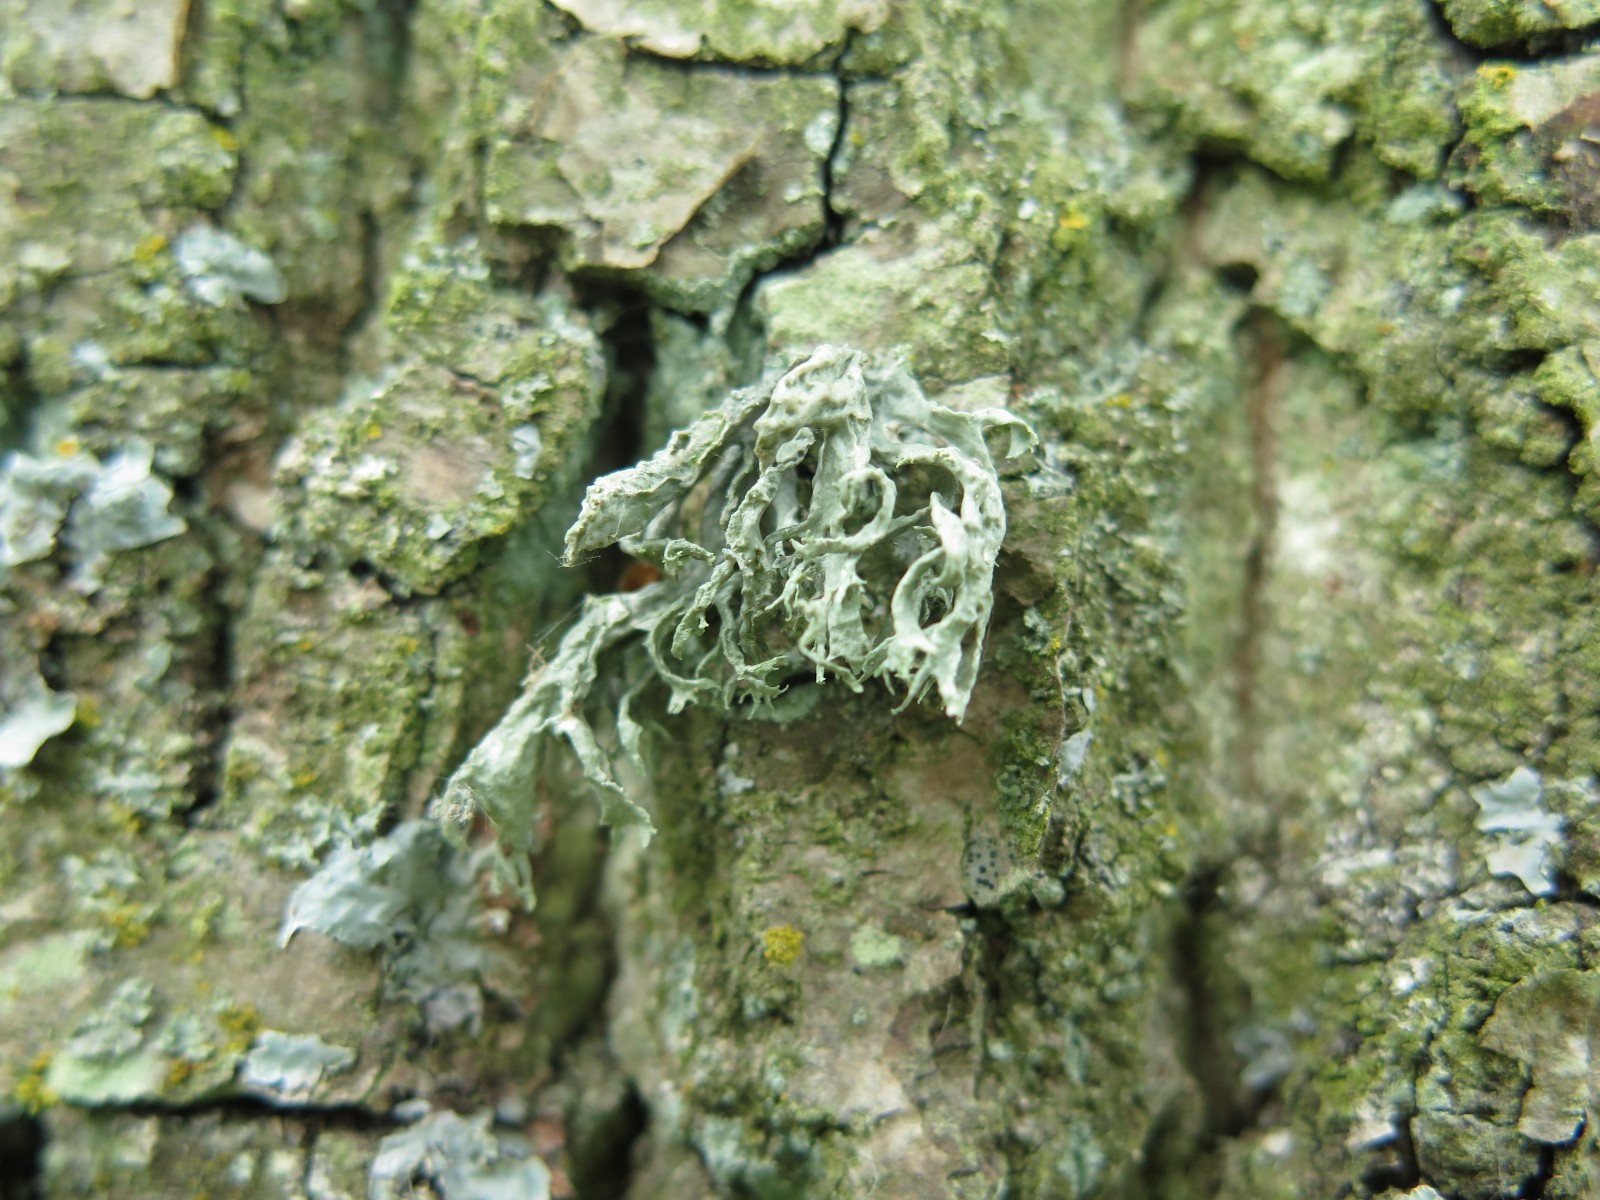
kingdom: Fungi
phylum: Ascomycota
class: Lecanoromycetes
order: Lecanorales
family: Ramalinaceae
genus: Ramalina
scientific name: Ramalina farinacea
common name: melet grenlav
